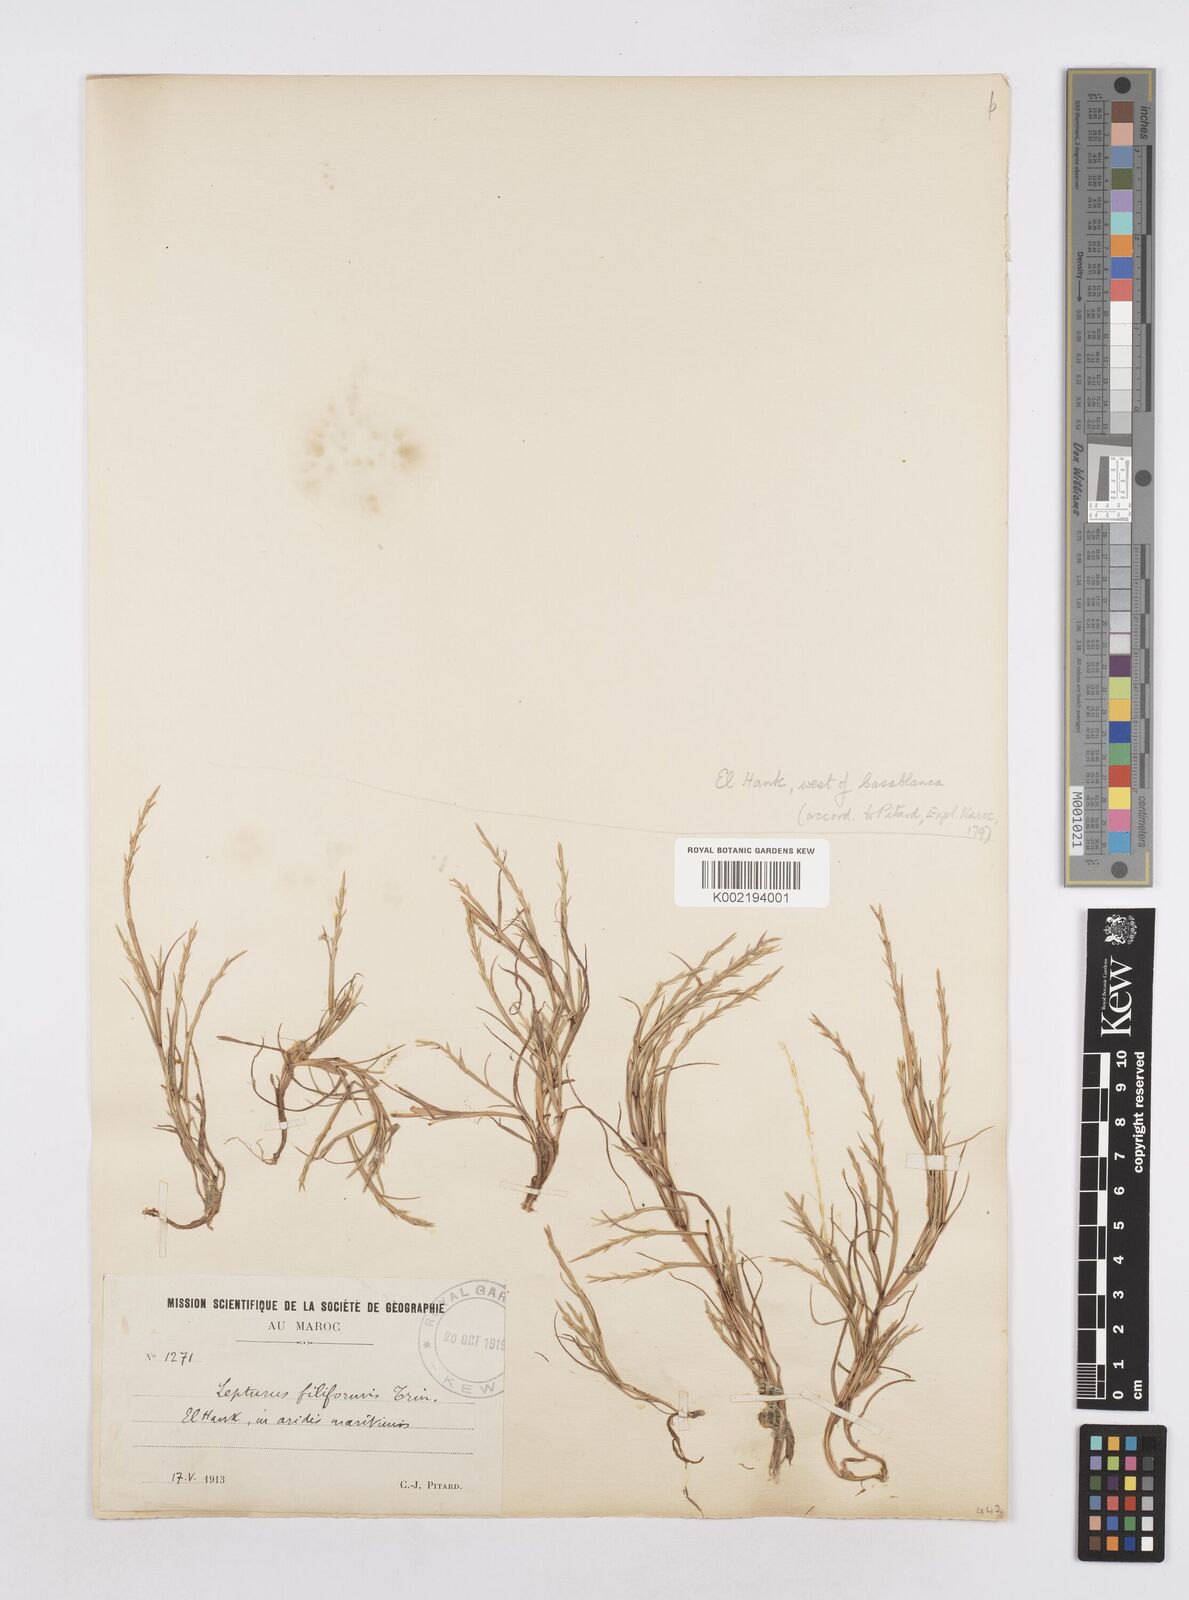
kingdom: Plantae
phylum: Tracheophyta
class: Liliopsida
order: Poales
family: Poaceae
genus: Parapholis
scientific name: Parapholis filiformis
